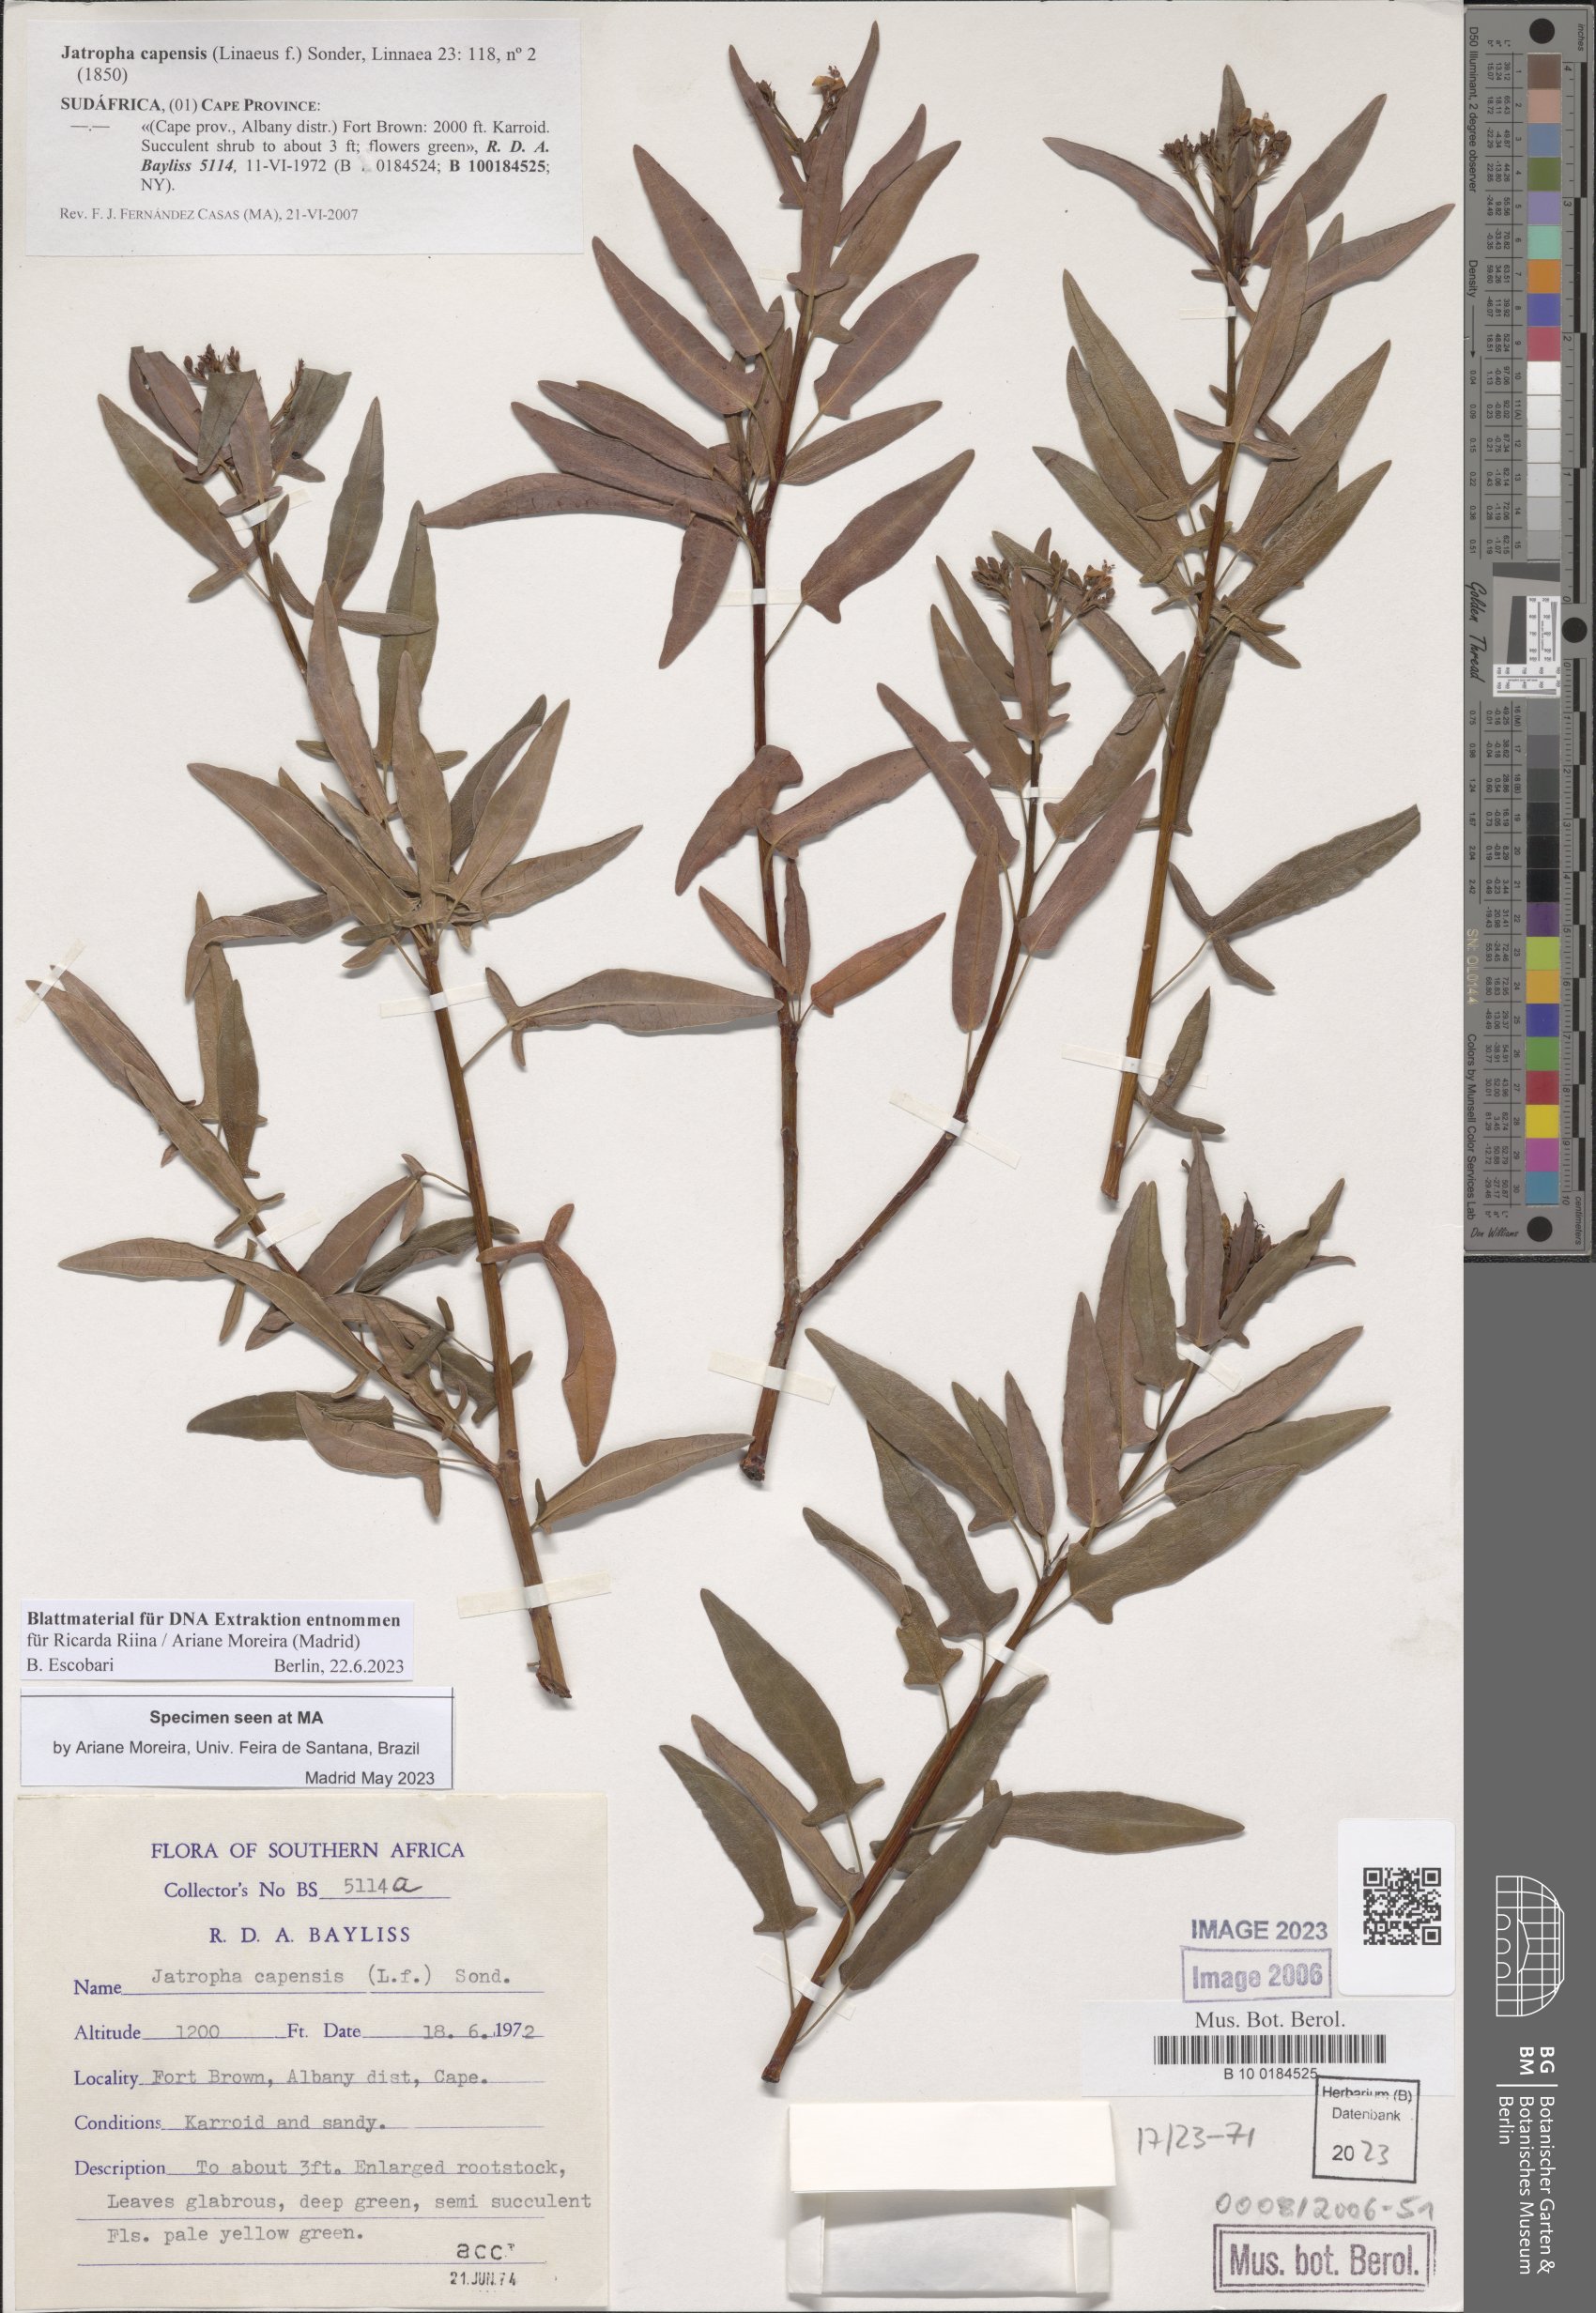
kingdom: Plantae
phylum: Tracheophyta
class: Magnoliopsida
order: Malpighiales
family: Euphorbiaceae
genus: Jatropha
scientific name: Jatropha capensis
